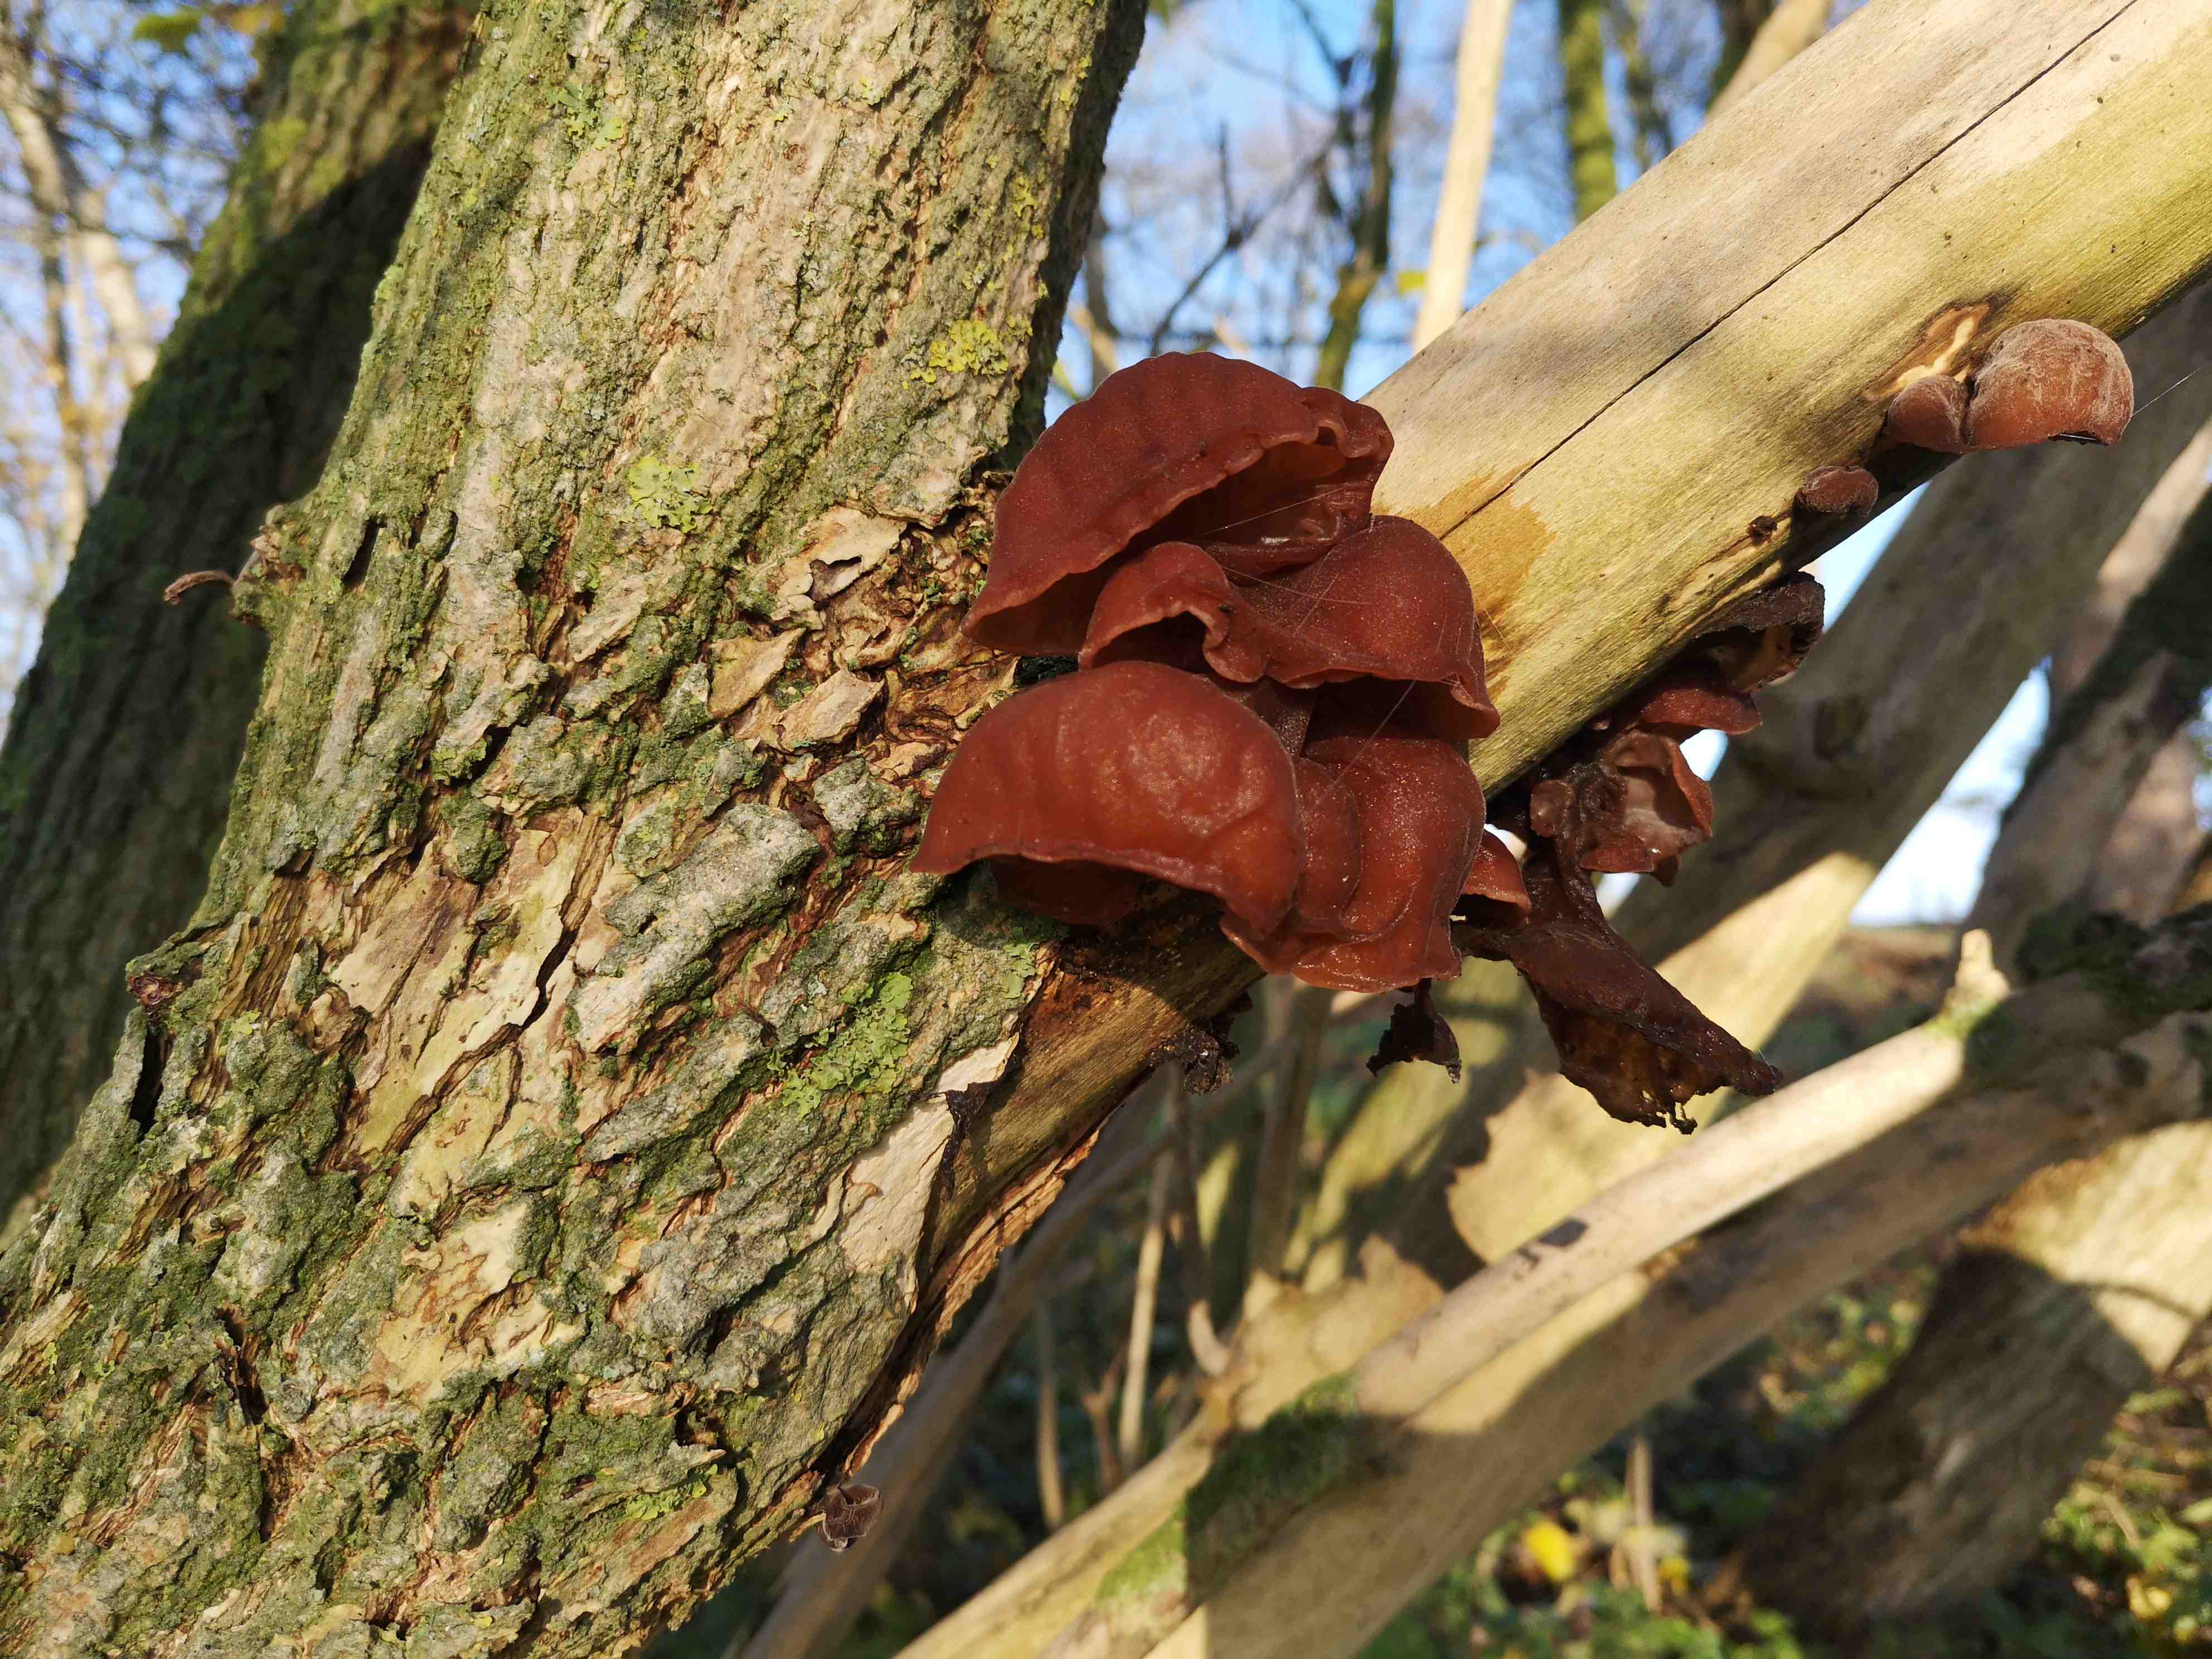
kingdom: Fungi
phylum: Basidiomycota
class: Agaricomycetes
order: Auriculariales
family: Auriculariaceae
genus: Auricularia
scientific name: Auricularia auricula-judae
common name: almindelig judasøre
